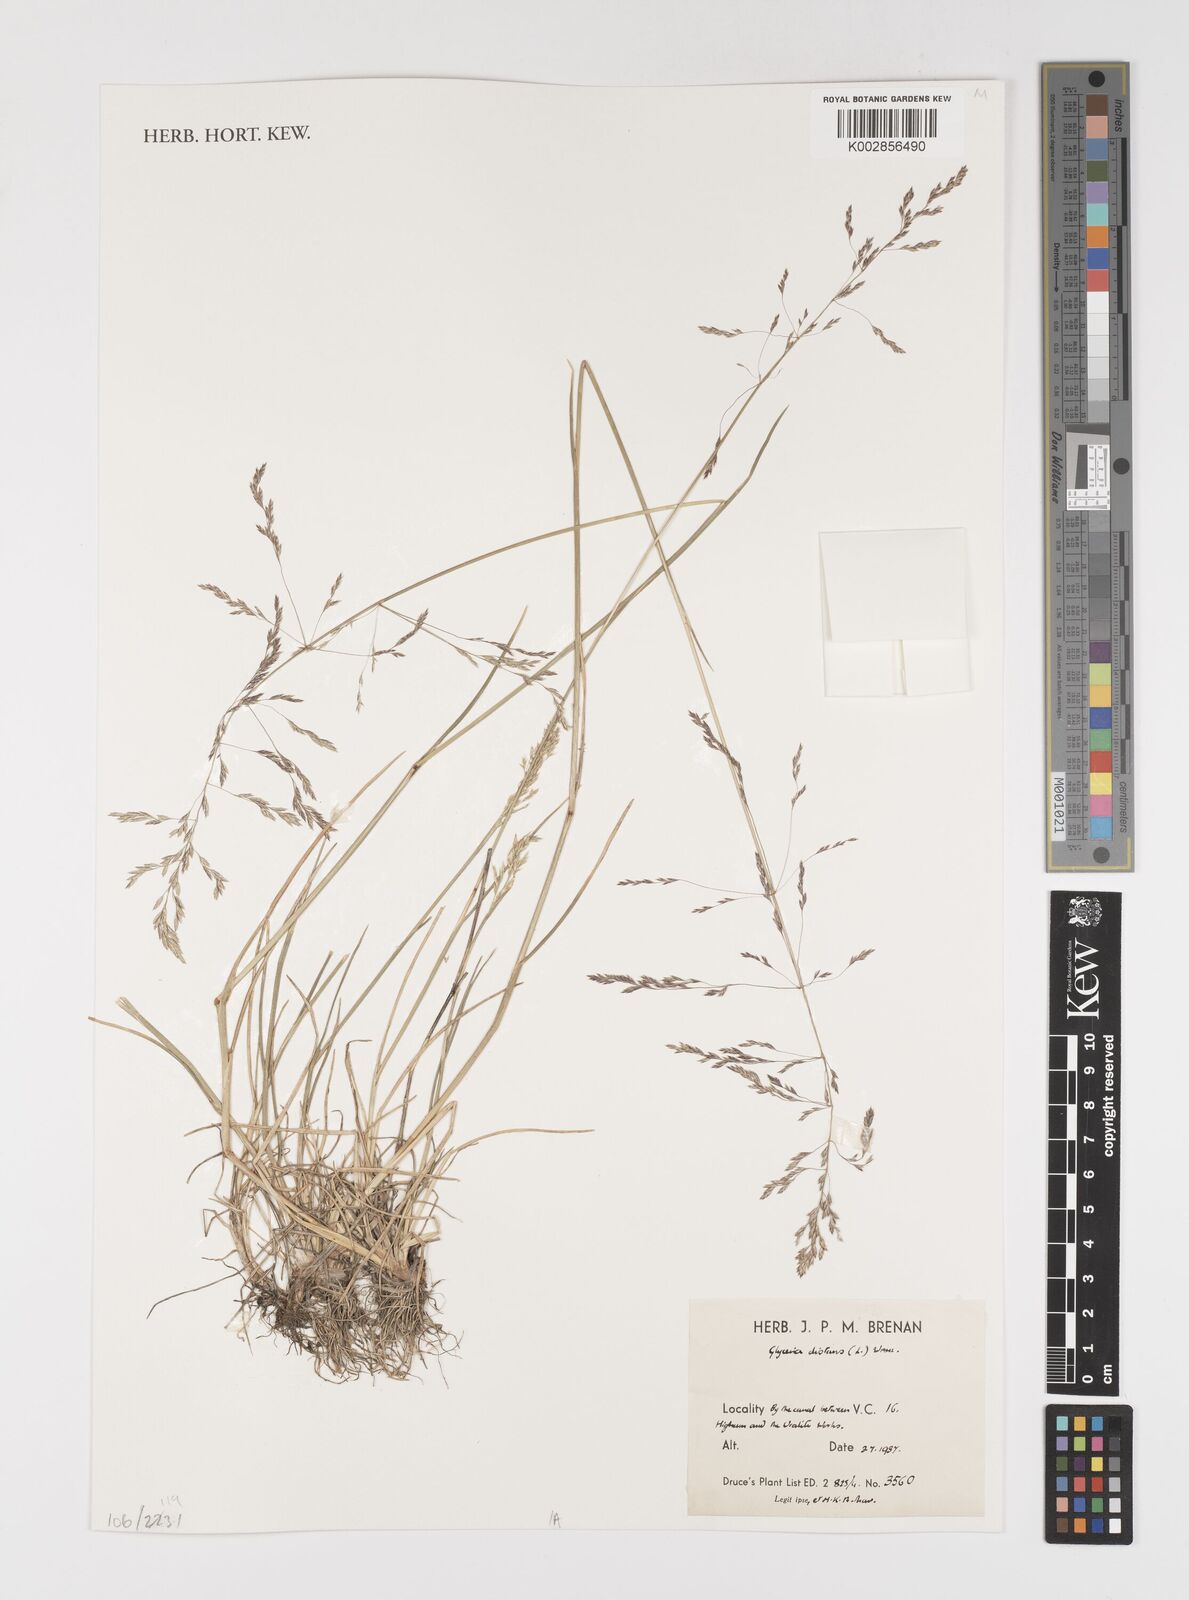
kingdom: Plantae
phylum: Tracheophyta
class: Liliopsida
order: Poales
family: Poaceae
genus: Puccinellia
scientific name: Puccinellia distans
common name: Weeping alkaligrass
